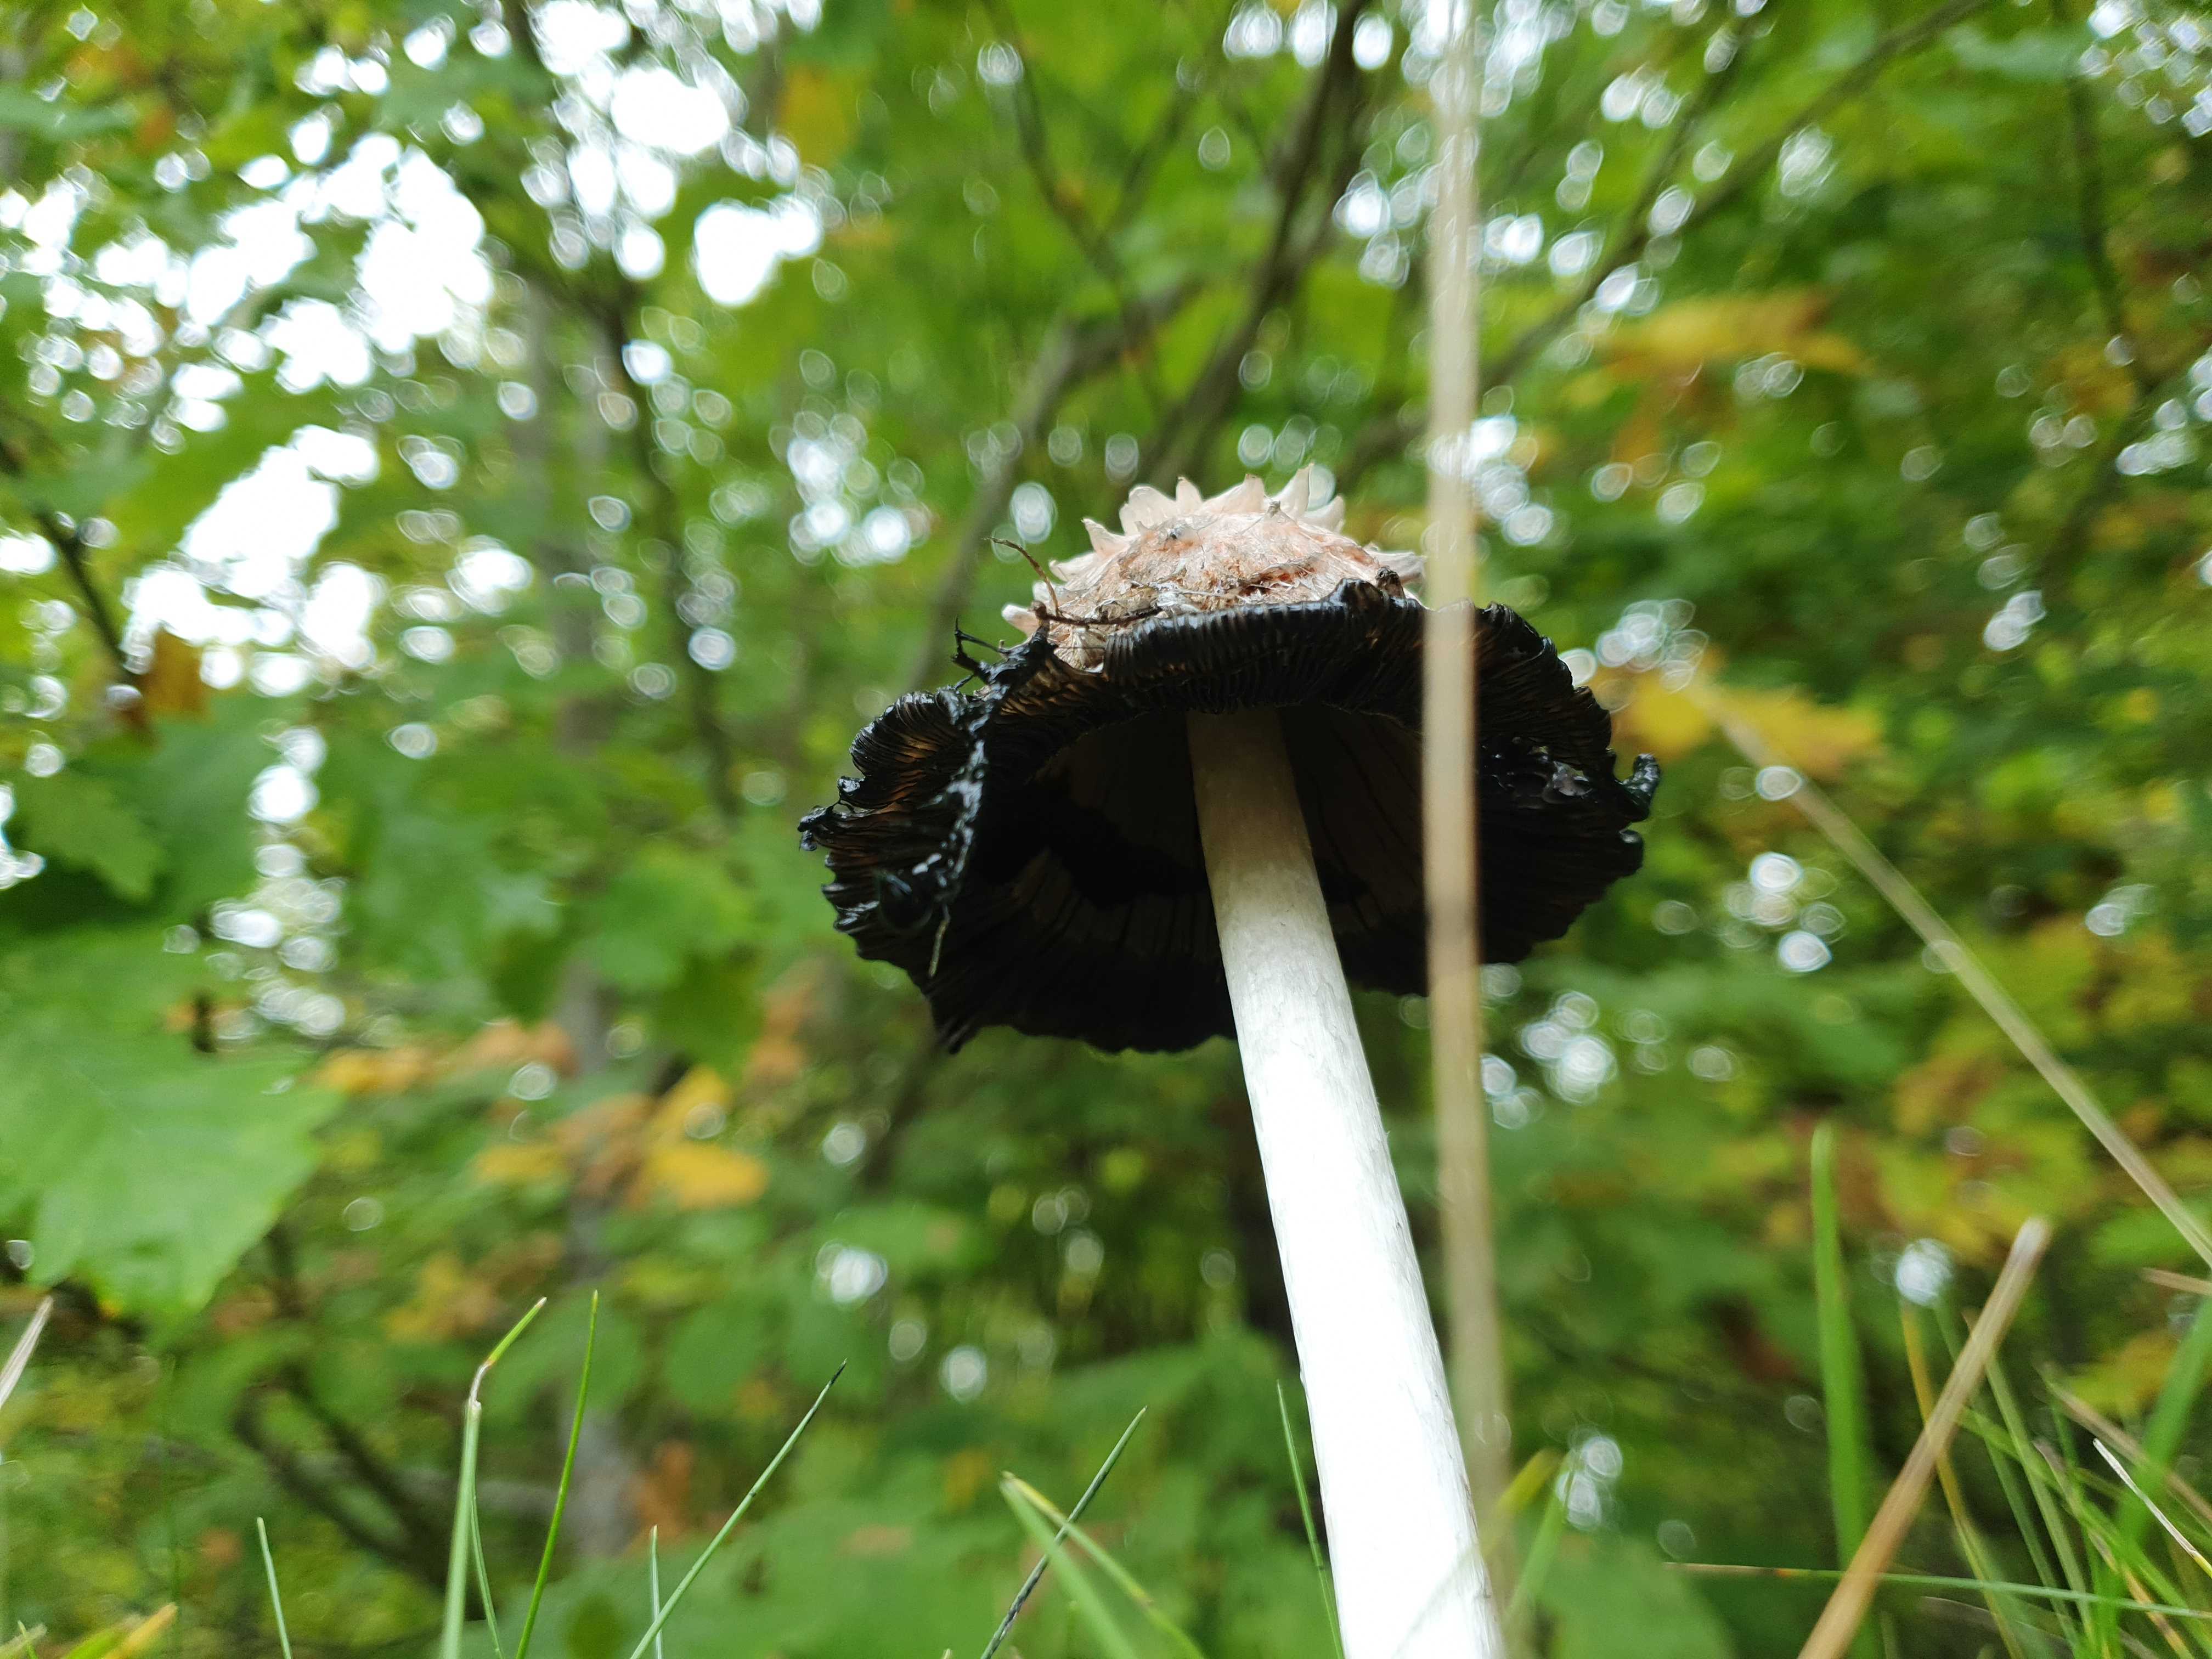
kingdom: Fungi
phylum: Basidiomycota
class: Agaricomycetes
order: Agaricales
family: Agaricaceae
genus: Coprinus
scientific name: Coprinus comatus
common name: stor parykhat
